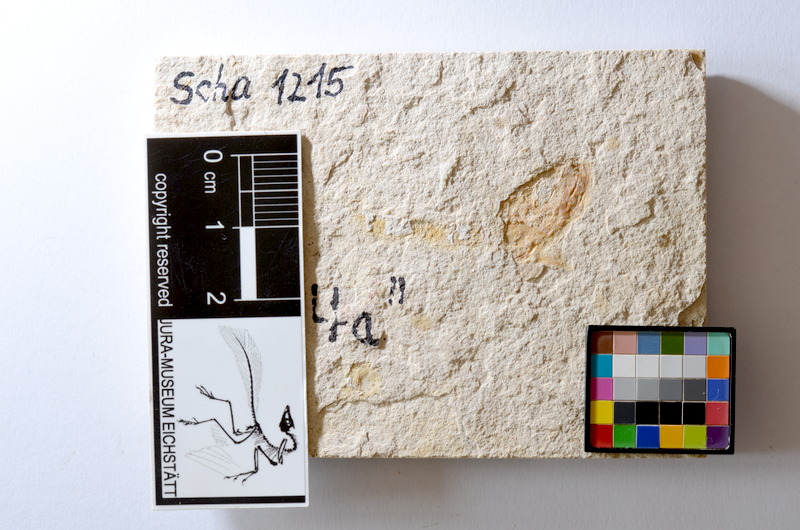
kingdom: Animalia
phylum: Chordata
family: Ascalaboidae
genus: Tharsis
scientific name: Tharsis dubius
